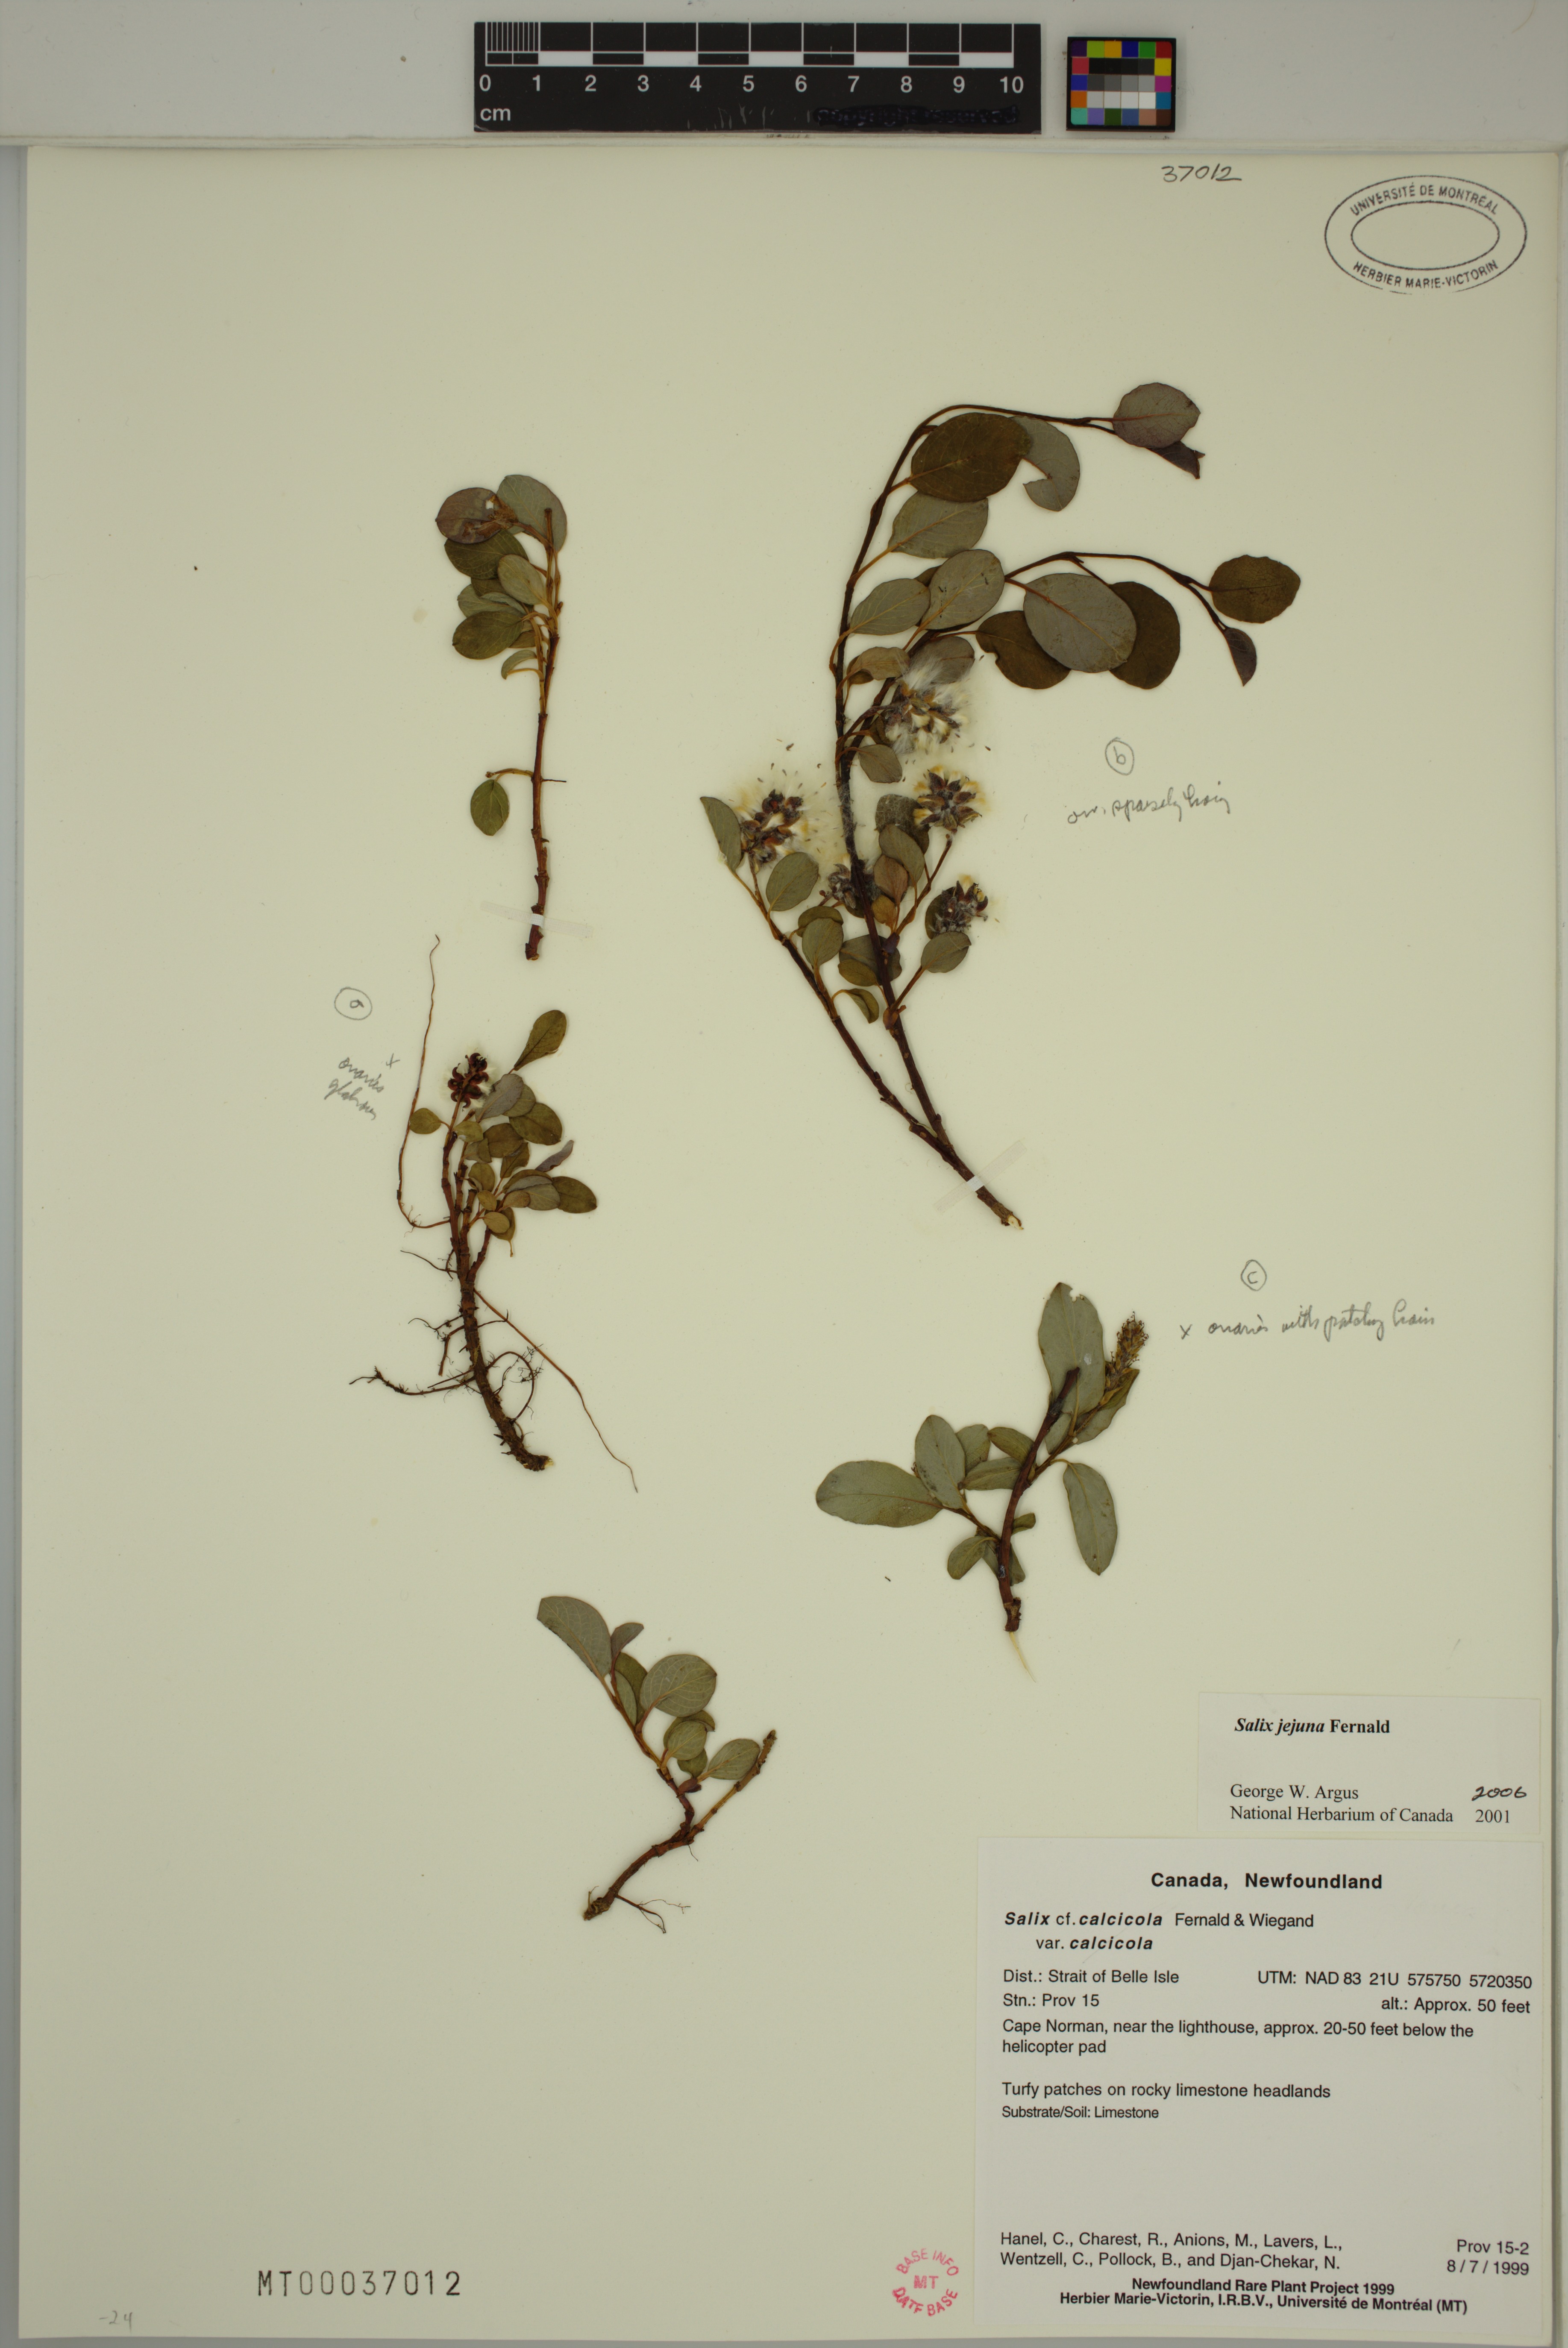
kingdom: Plantae
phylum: Tracheophyta
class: Magnoliopsida
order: Malpighiales
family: Salicaceae
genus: Salix
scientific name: Salix jejuna
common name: Belle isle dwarf willow
